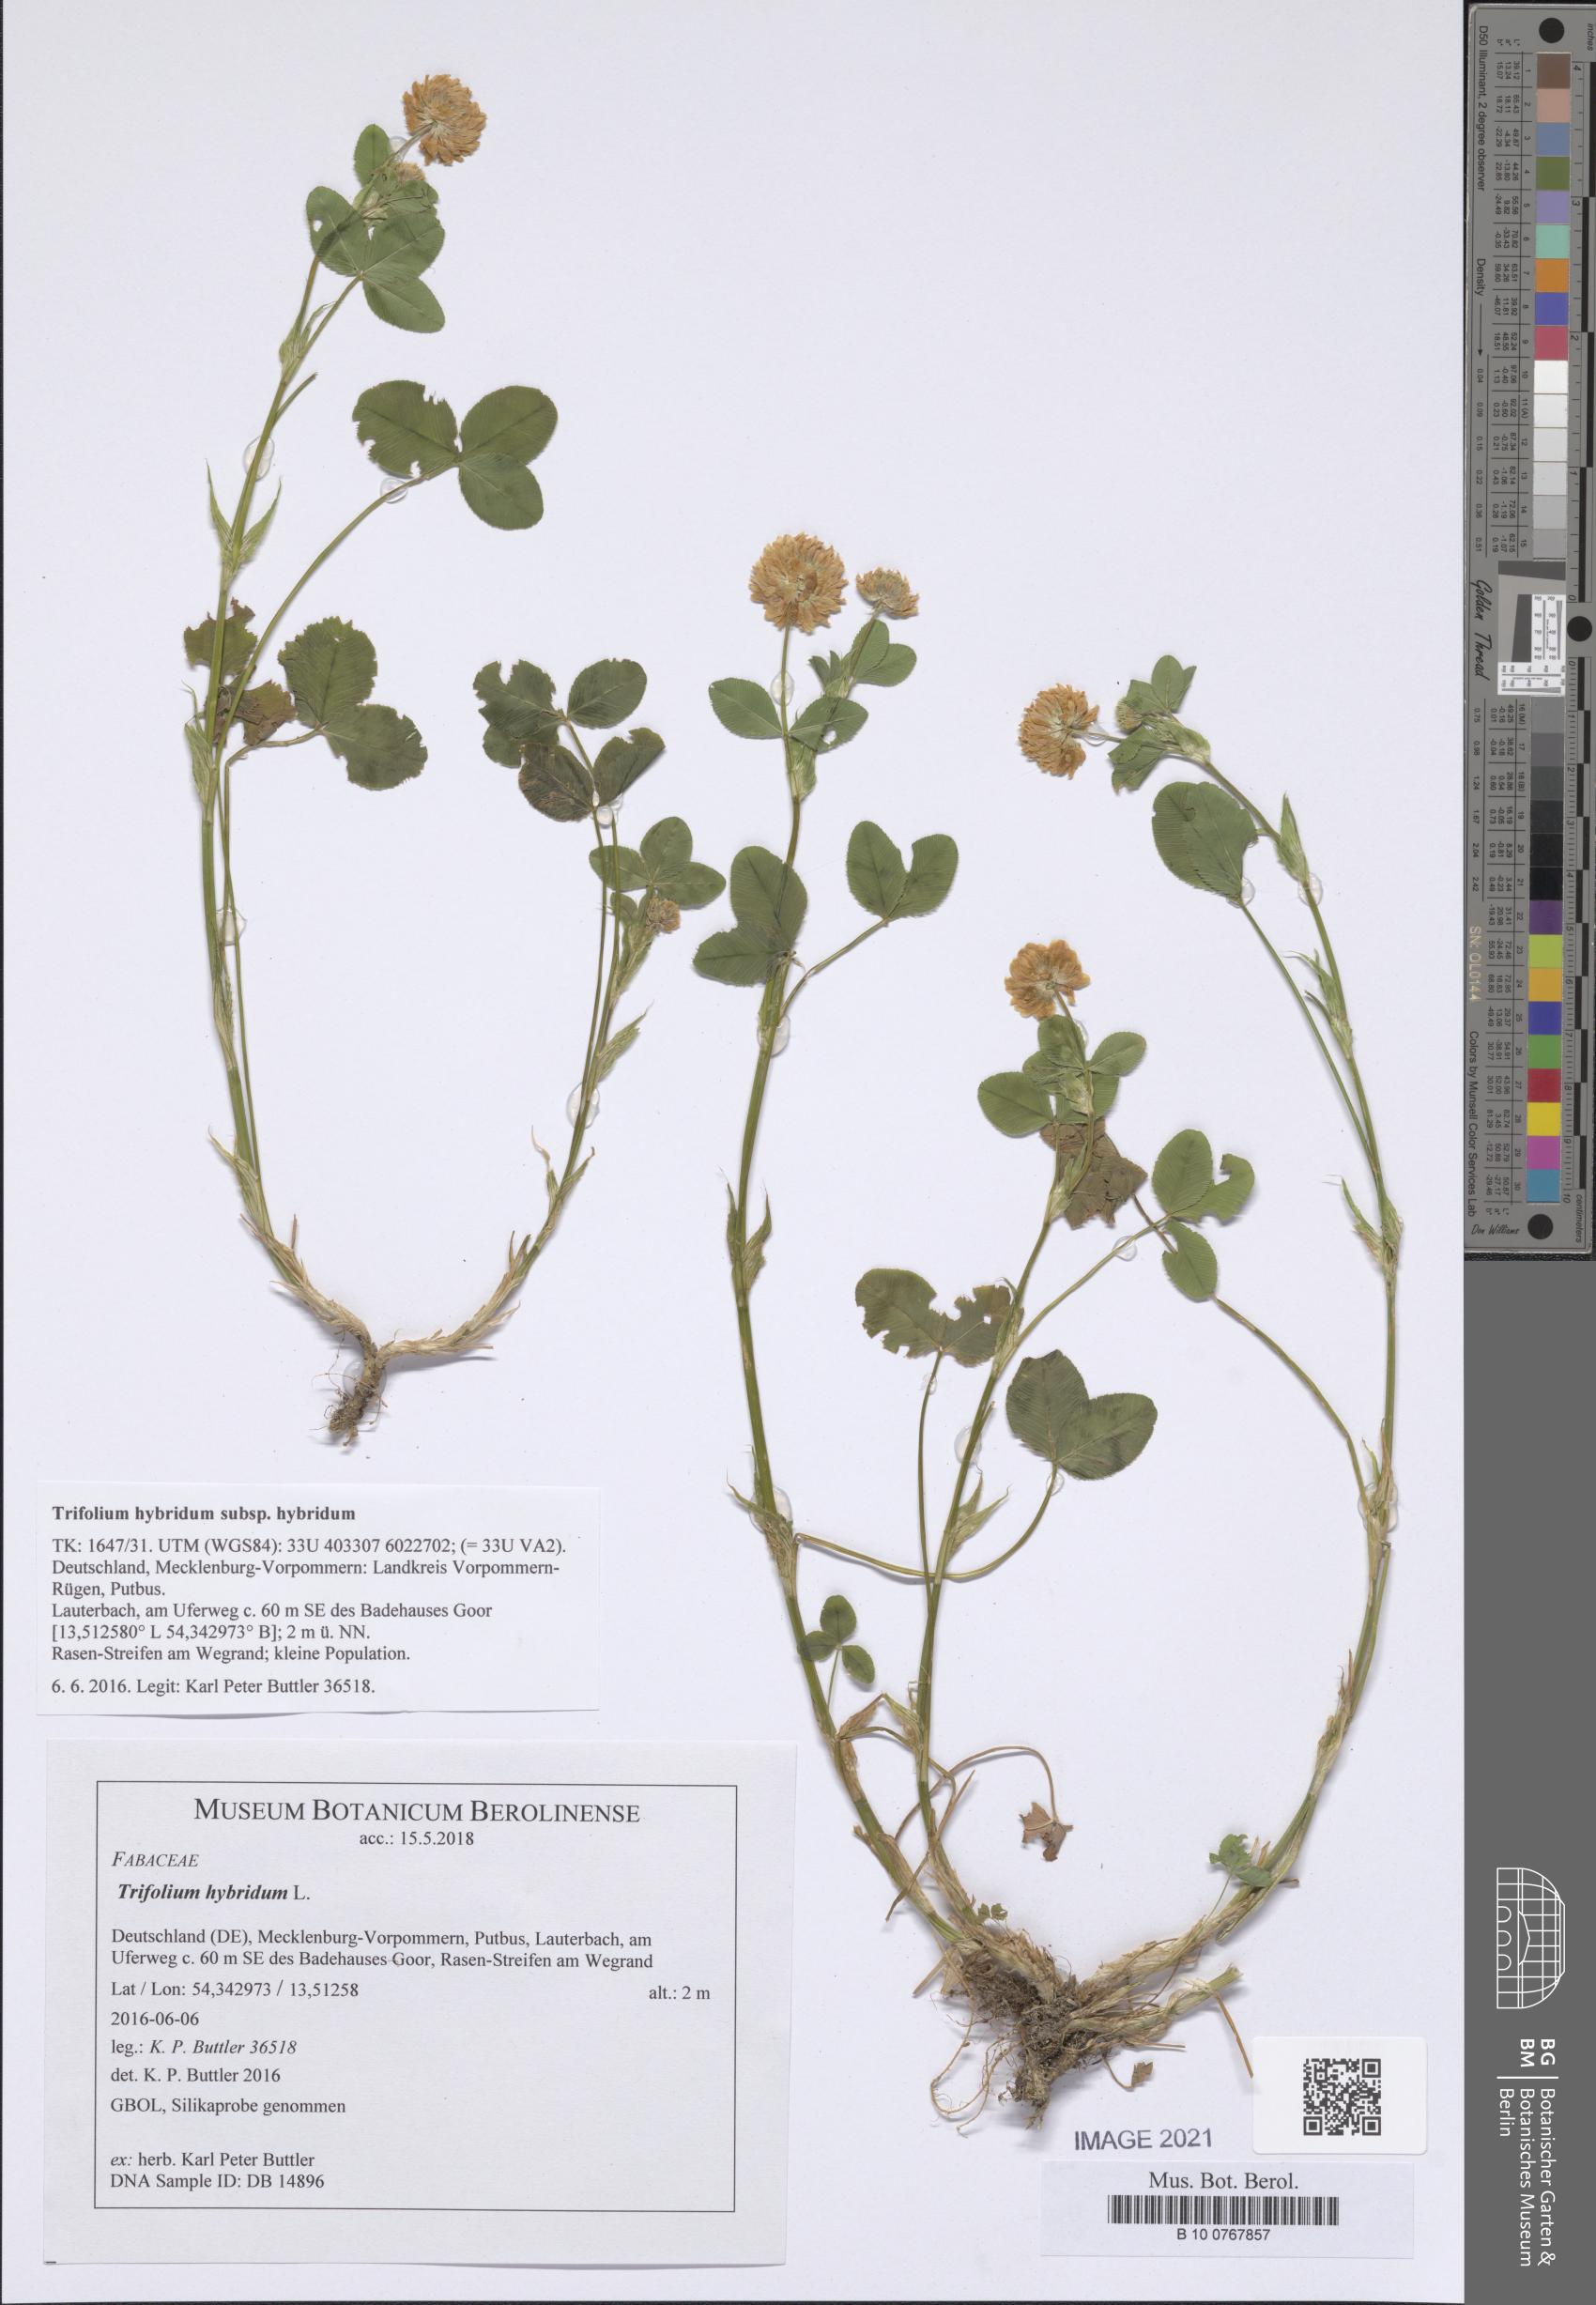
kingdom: Plantae
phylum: Tracheophyta
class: Magnoliopsida
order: Fabales
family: Fabaceae
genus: Trifolium
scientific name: Trifolium hybridum
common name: Alsike clover
